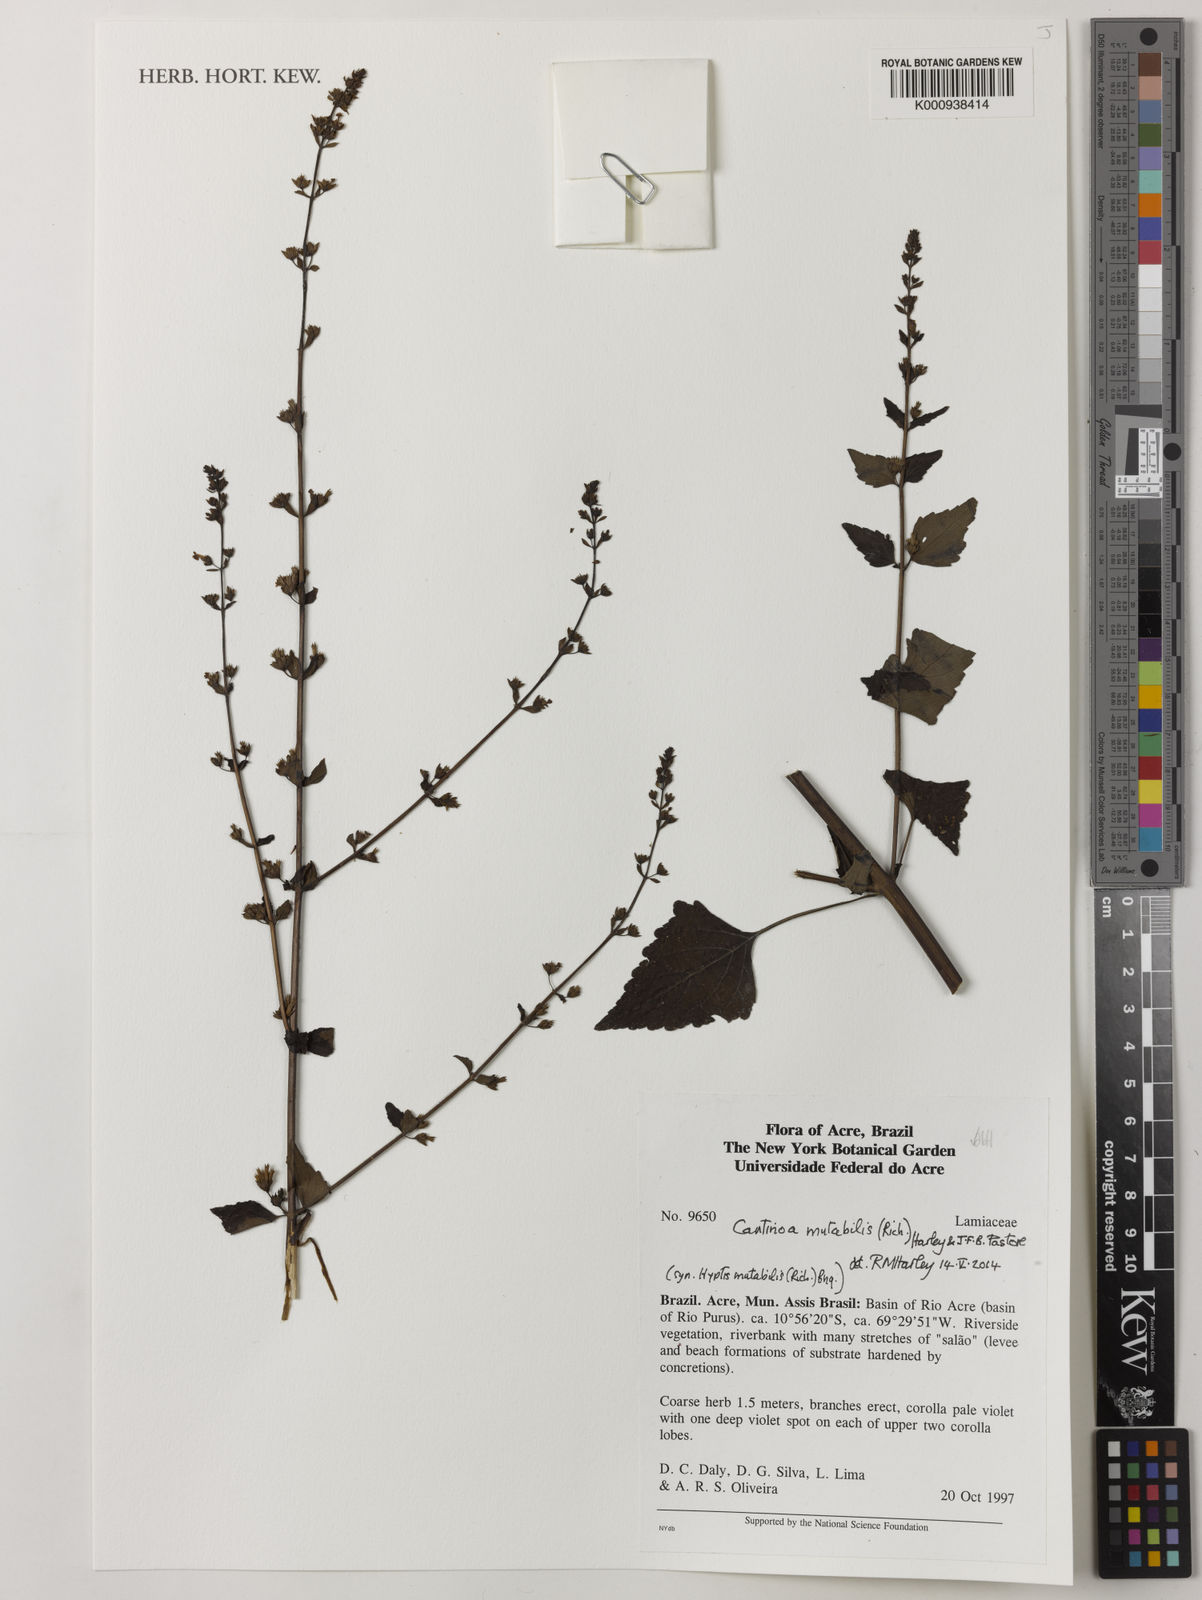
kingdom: Plantae
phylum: Tracheophyta
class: Magnoliopsida
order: Lamiales
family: Lamiaceae
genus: Cantinoa
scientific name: Cantinoa mutabilis
